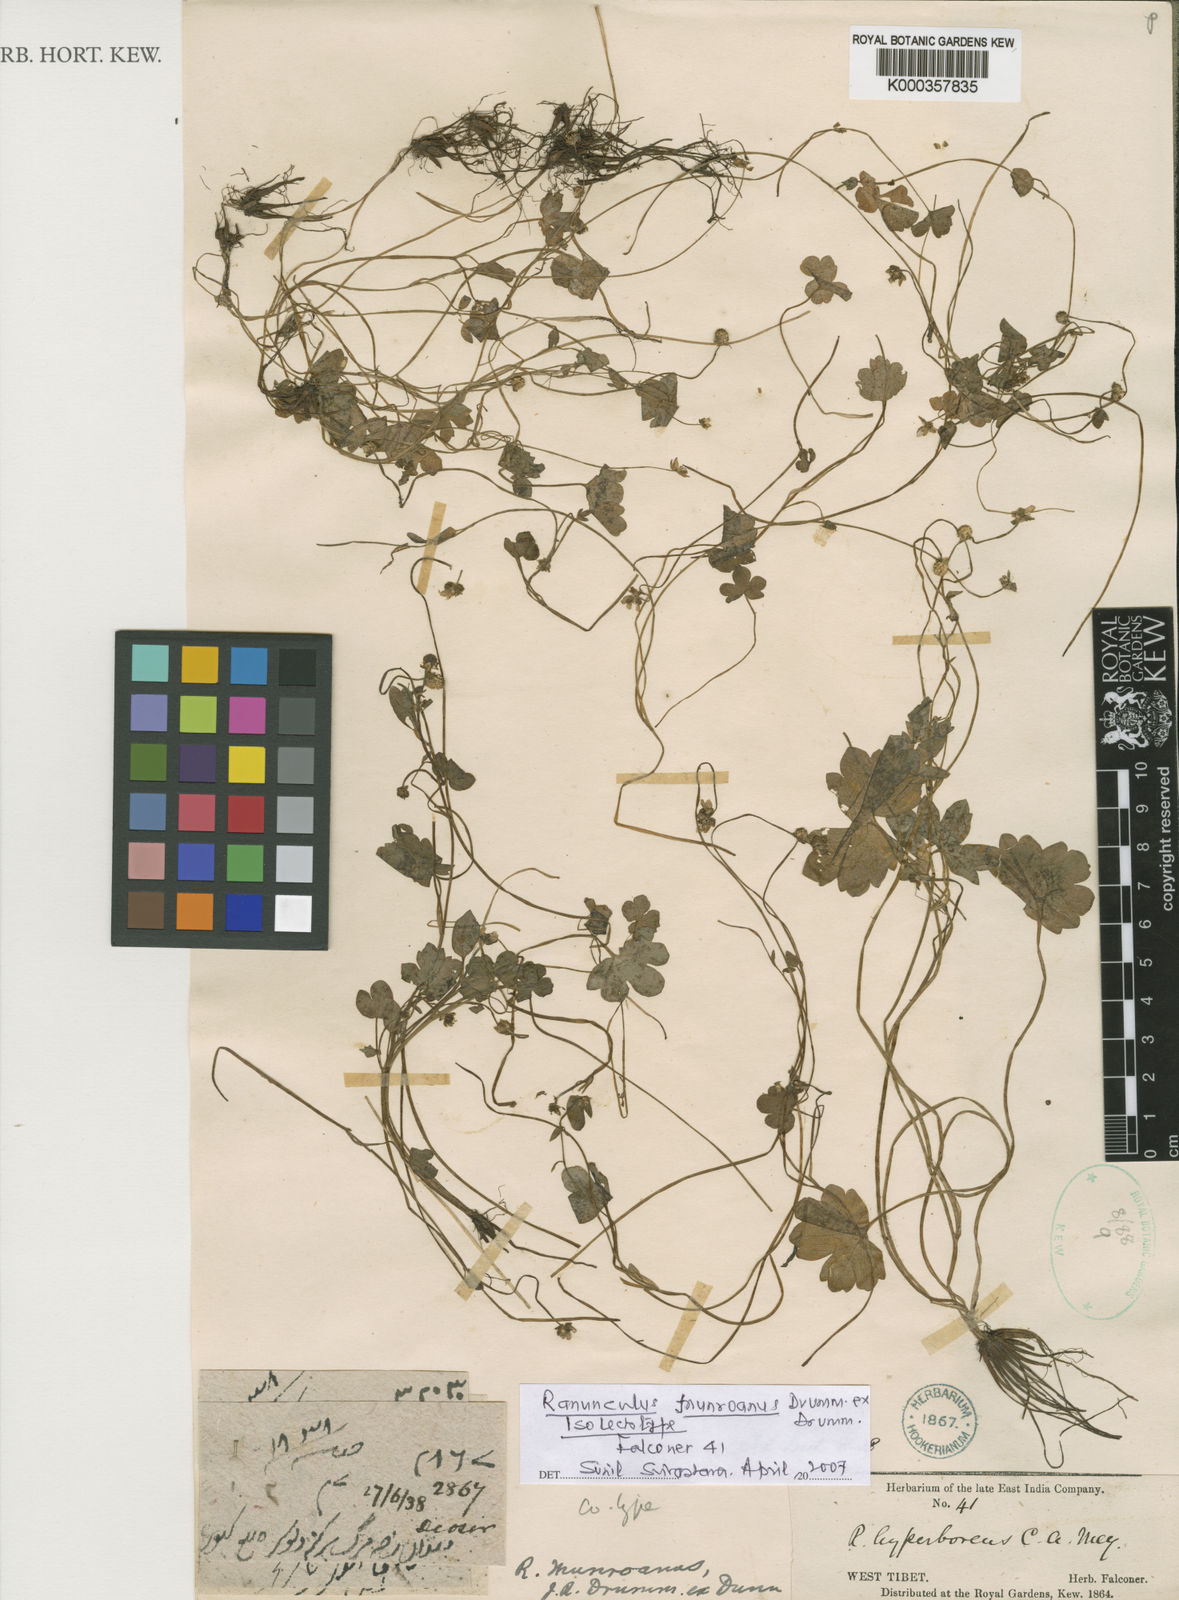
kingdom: Plantae
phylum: Tracheophyta
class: Magnoliopsida
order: Ranunculales
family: Ranunculaceae
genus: Ranunculus
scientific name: Ranunculus munroanus
